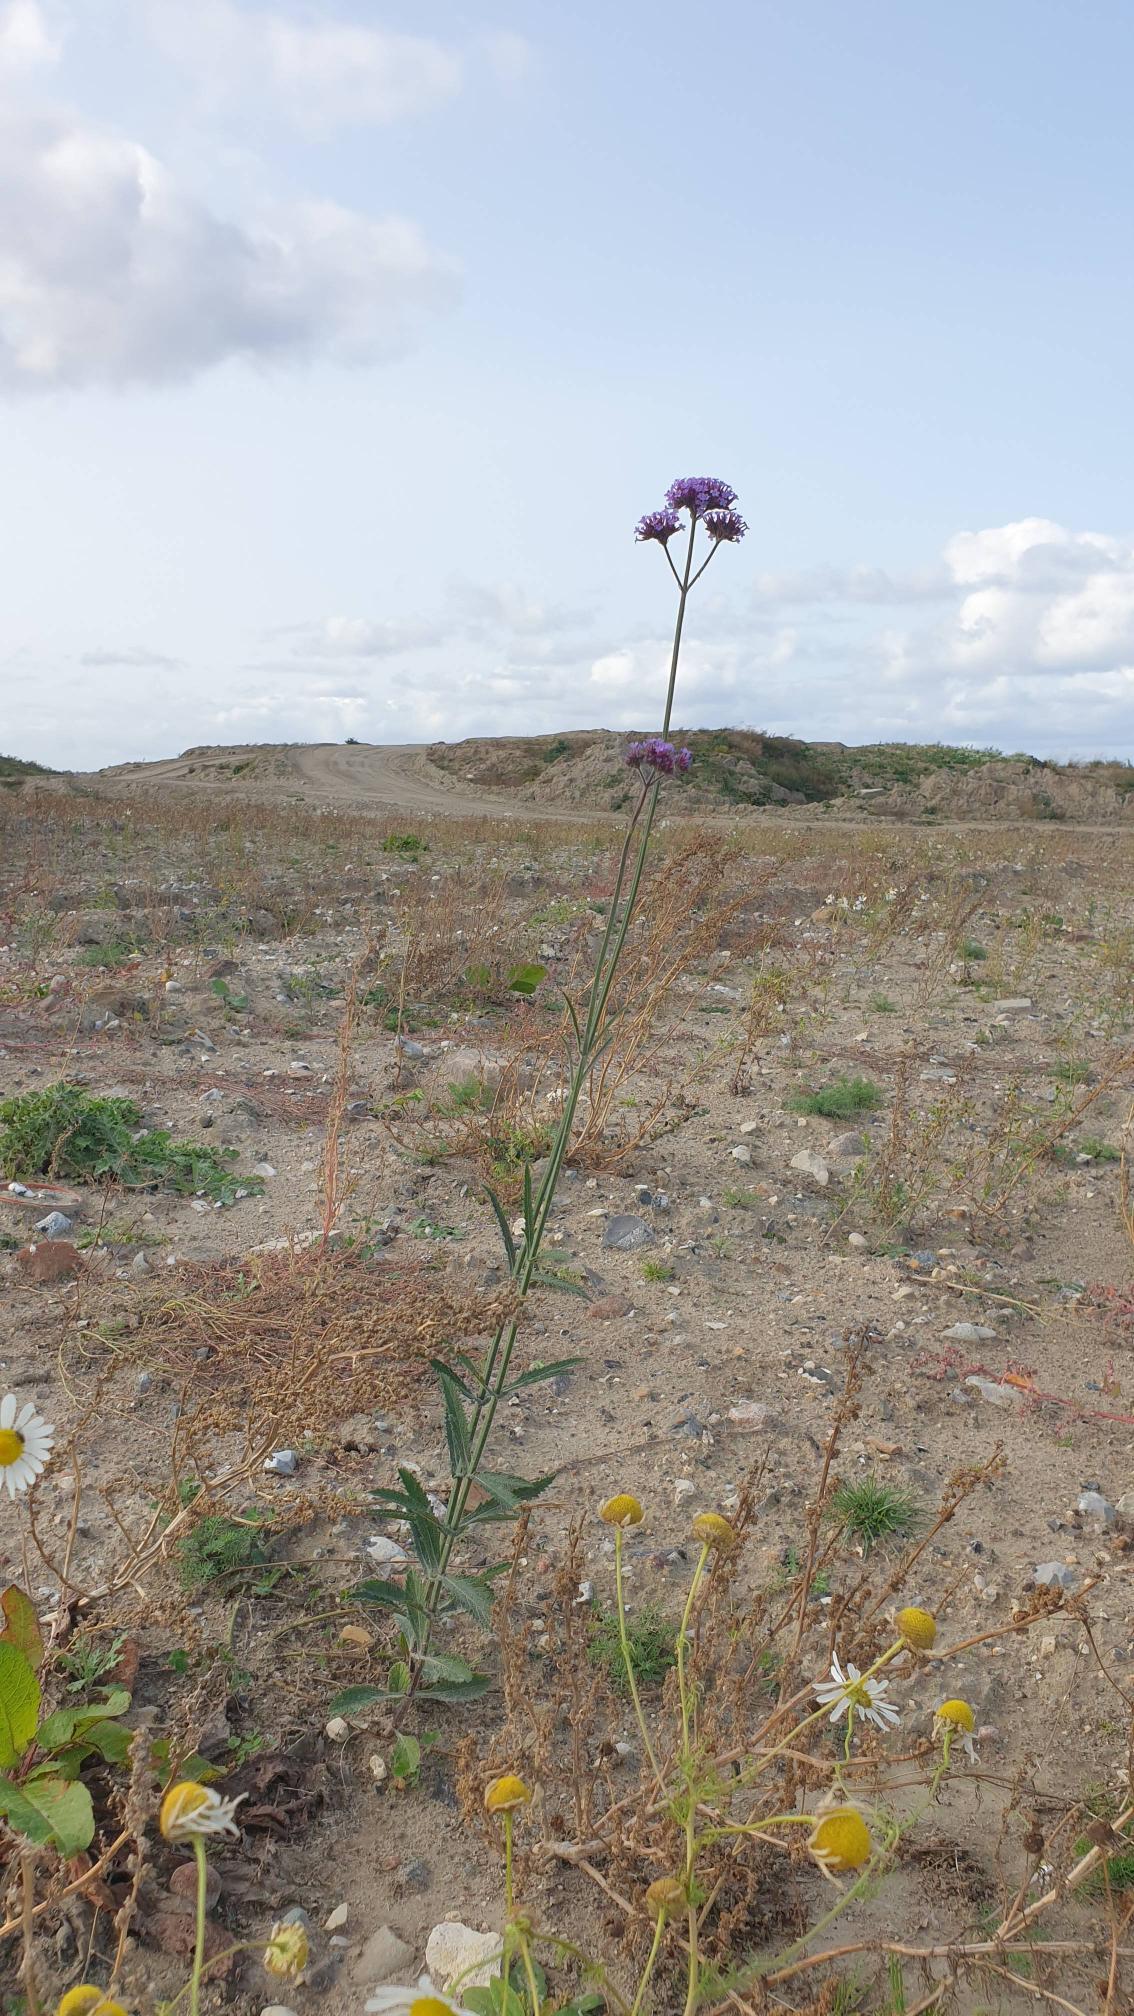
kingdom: Plantae
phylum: Tracheophyta
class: Magnoliopsida
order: Lamiales
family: Verbenaceae
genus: Verbena
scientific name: Verbena bonariensis
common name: Kæmpe-jernurt
